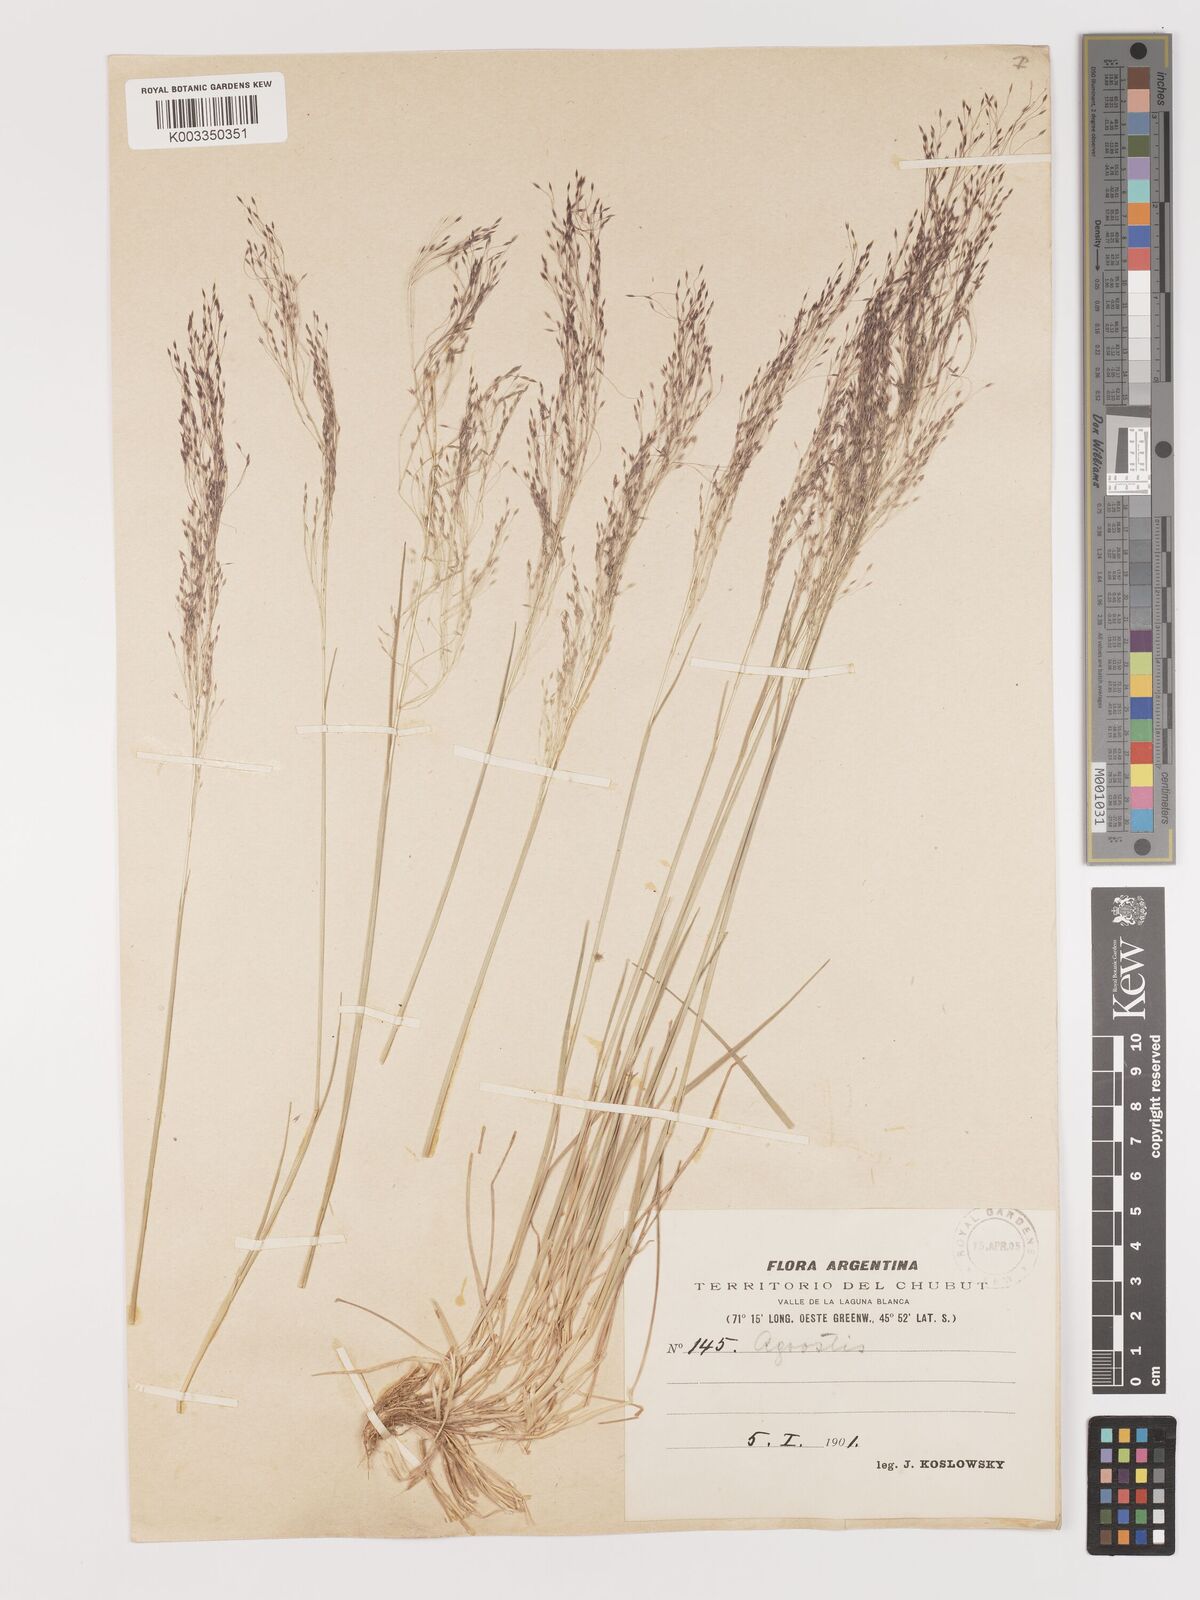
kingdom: Plantae
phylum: Tracheophyta
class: Liliopsida
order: Poales
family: Poaceae
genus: Agrostis
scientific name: Agrostis
